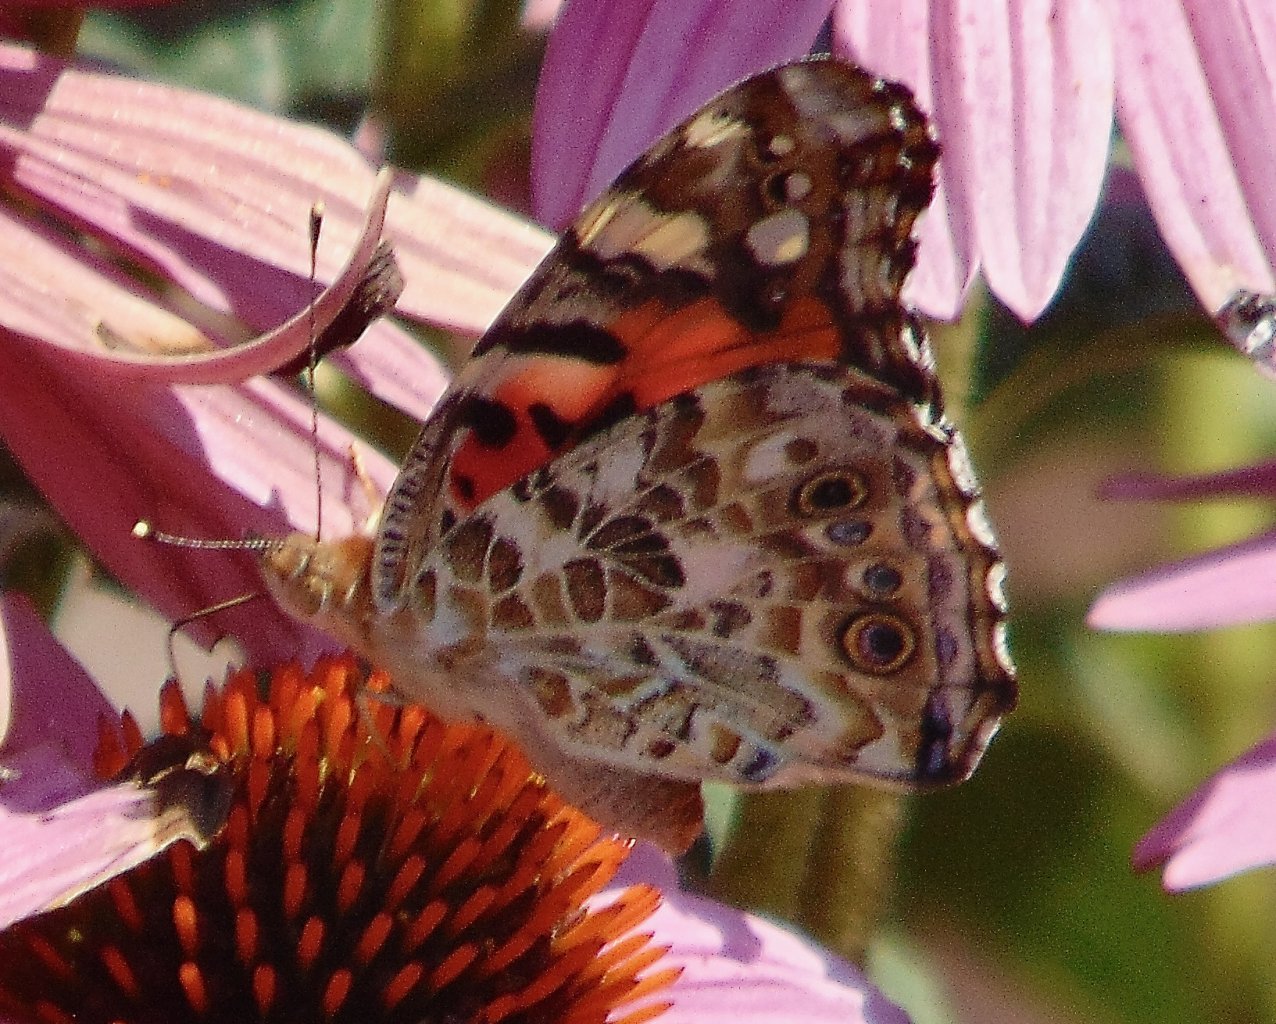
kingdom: Animalia
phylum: Arthropoda
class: Insecta
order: Lepidoptera
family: Nymphalidae
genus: Vanessa
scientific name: Vanessa cardui
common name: Painted Lady
